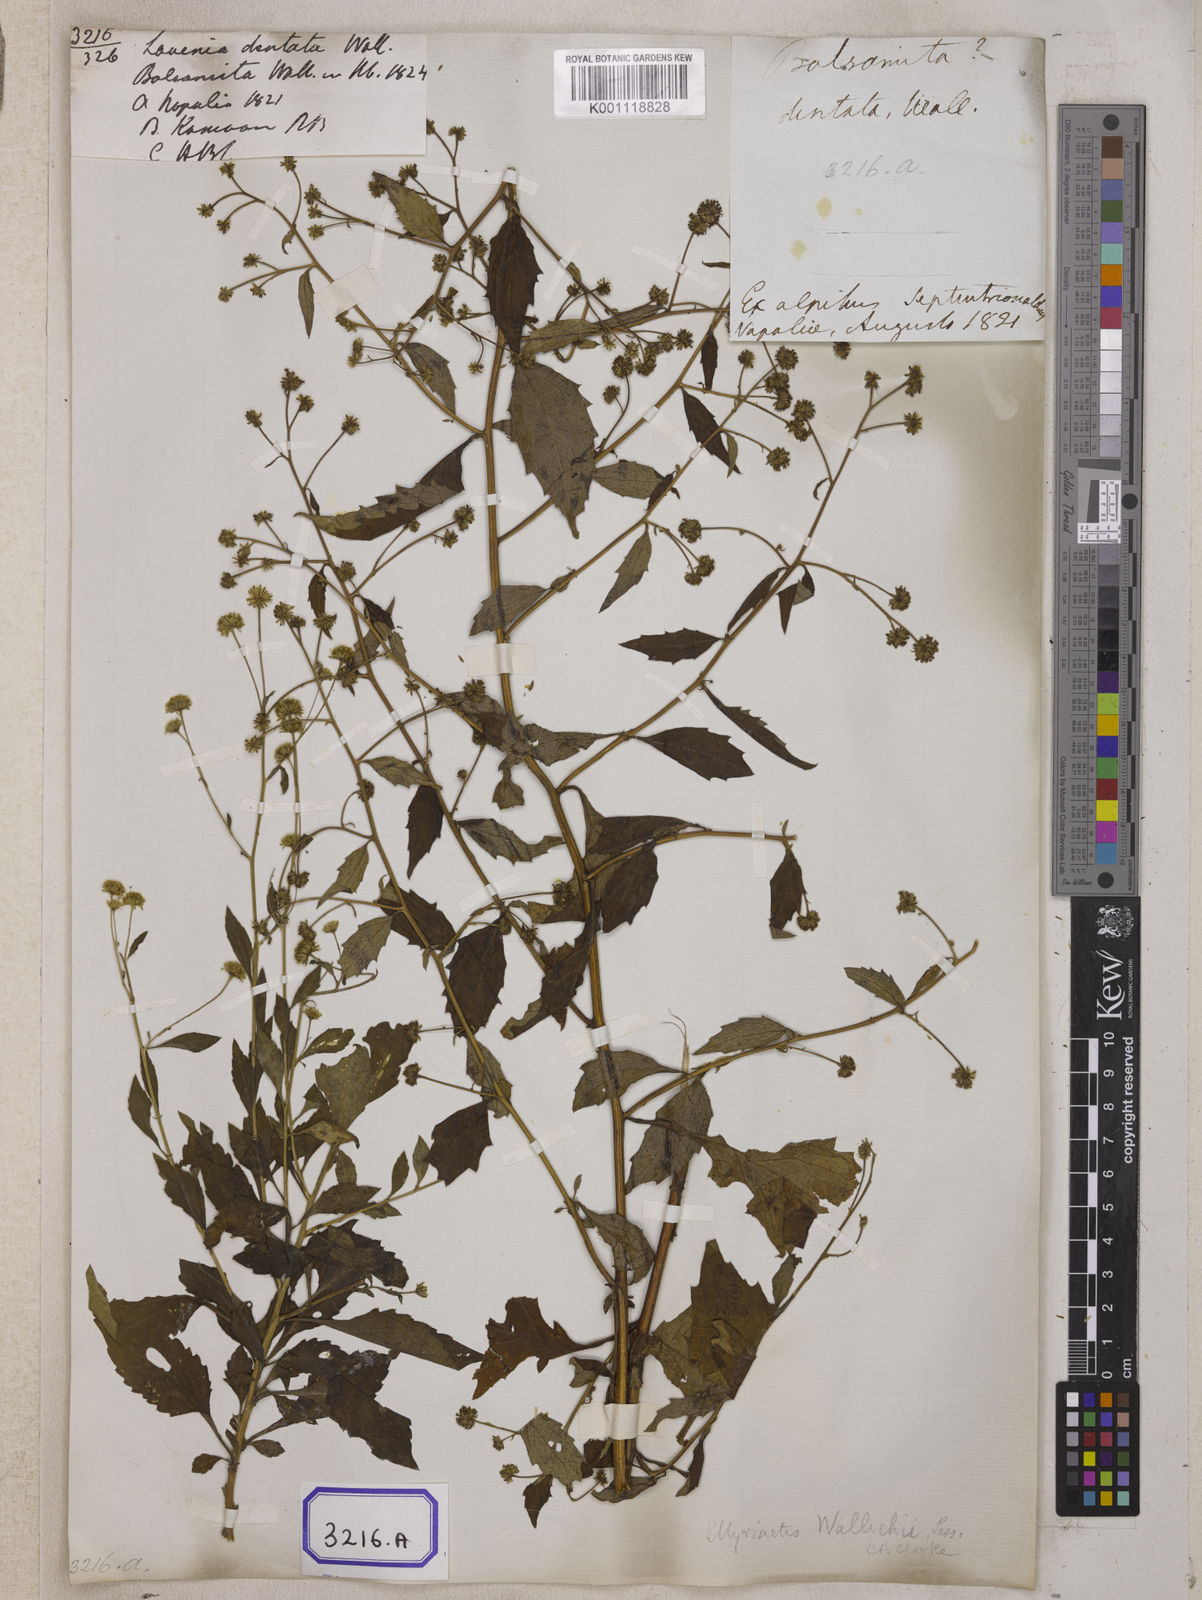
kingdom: Plantae
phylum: Tracheophyta
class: Magnoliopsida
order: Asterales
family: Asteraceae
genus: Myriactis
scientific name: Myriactis nepalensis
